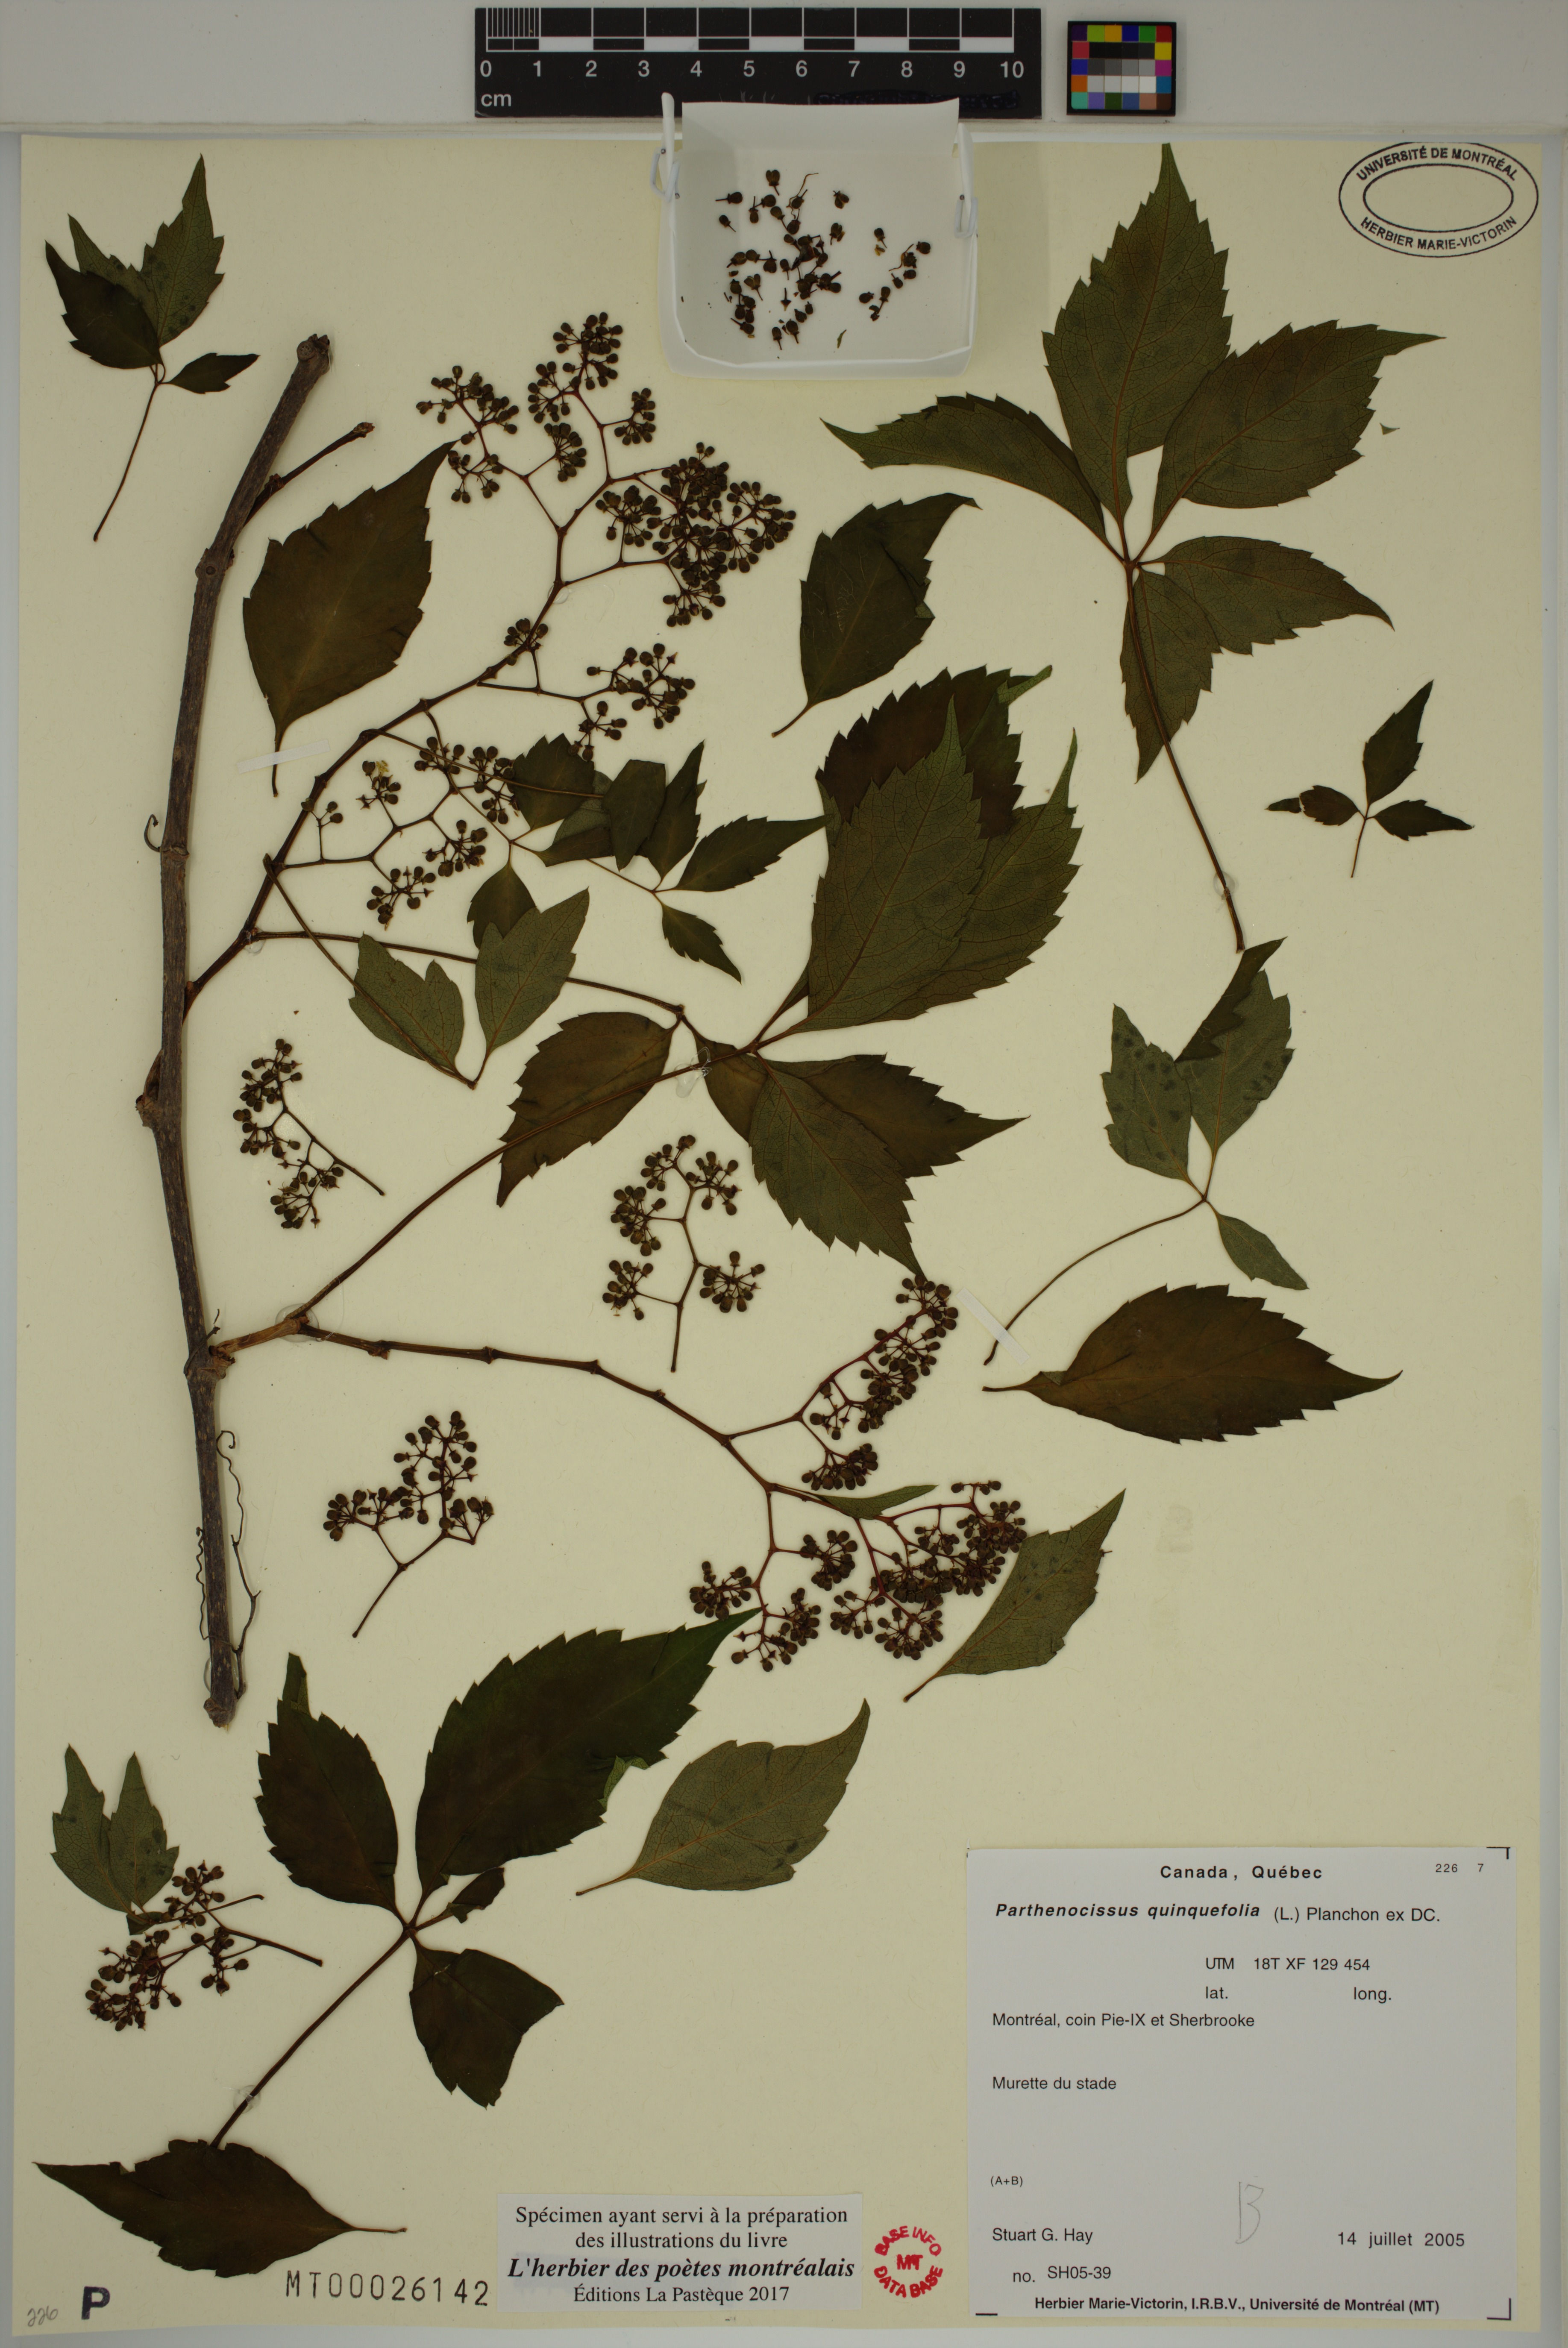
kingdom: Plantae
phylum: Tracheophyta
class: Magnoliopsida
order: Vitales
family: Vitaceae
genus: Parthenocissus
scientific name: Parthenocissus quinquefolia
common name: Virginia-creeper
